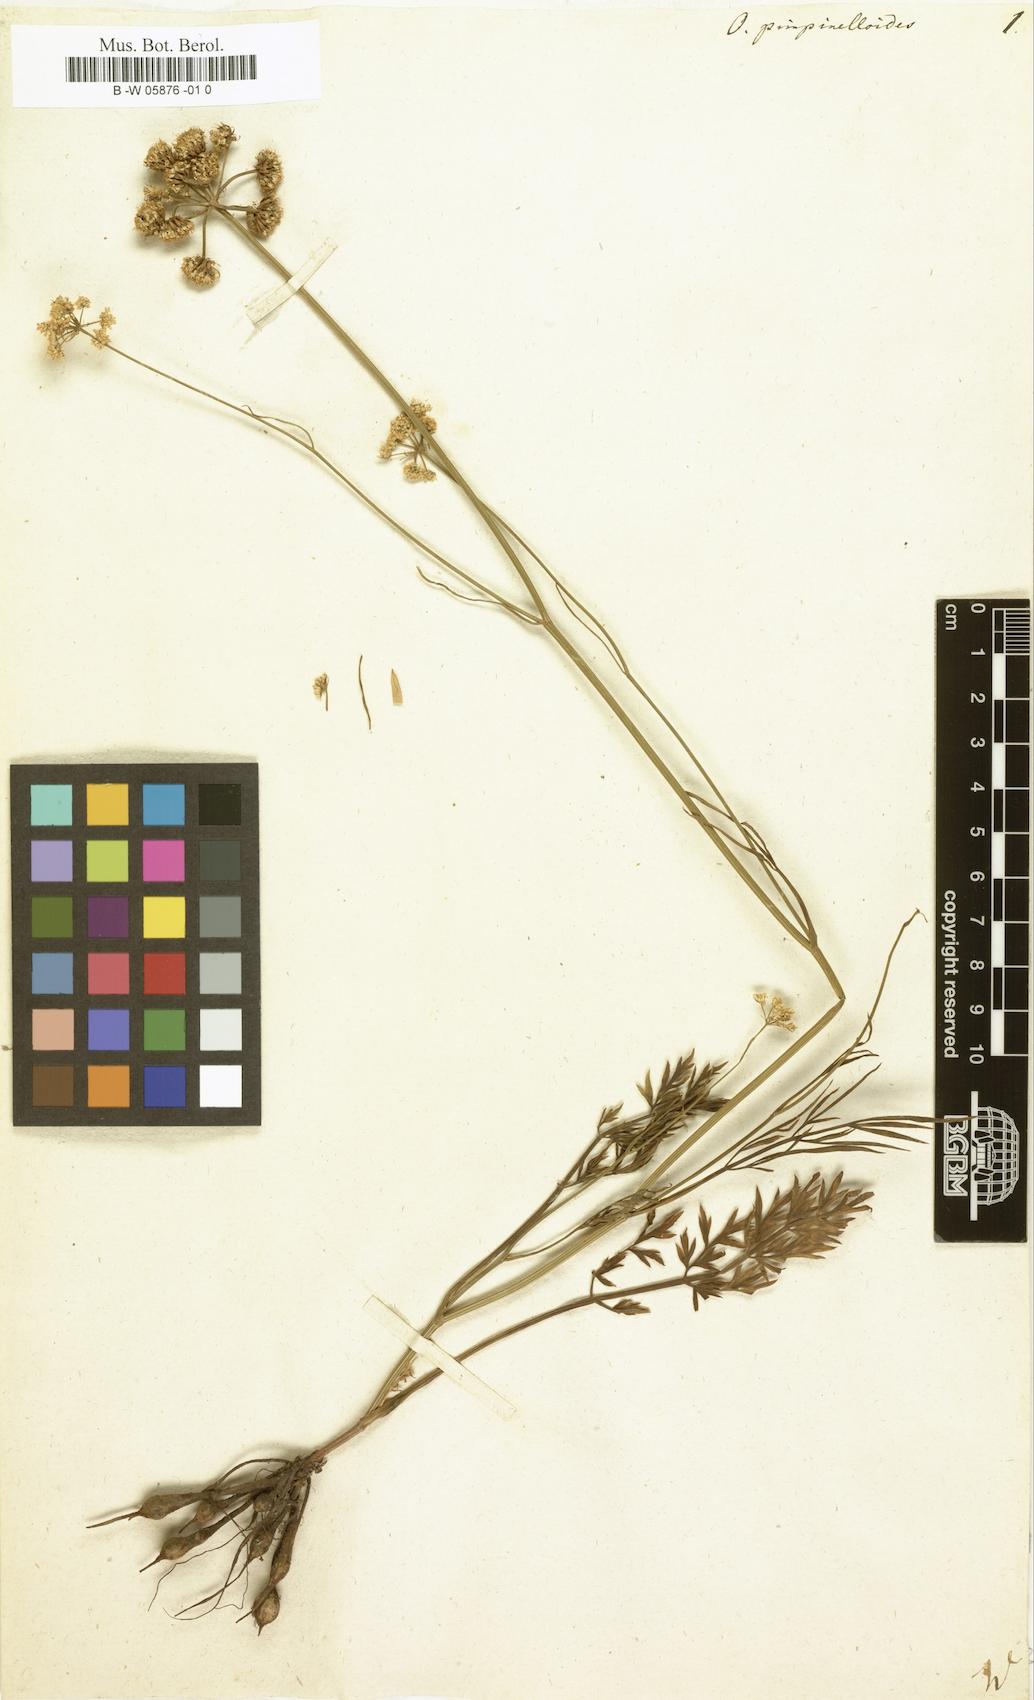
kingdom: Plantae
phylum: Tracheophyta
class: Magnoliopsida
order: Apiales
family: Apiaceae
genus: Oenanthe
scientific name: Oenanthe pimpinelloides
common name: Corky-fruited water-dropwort
